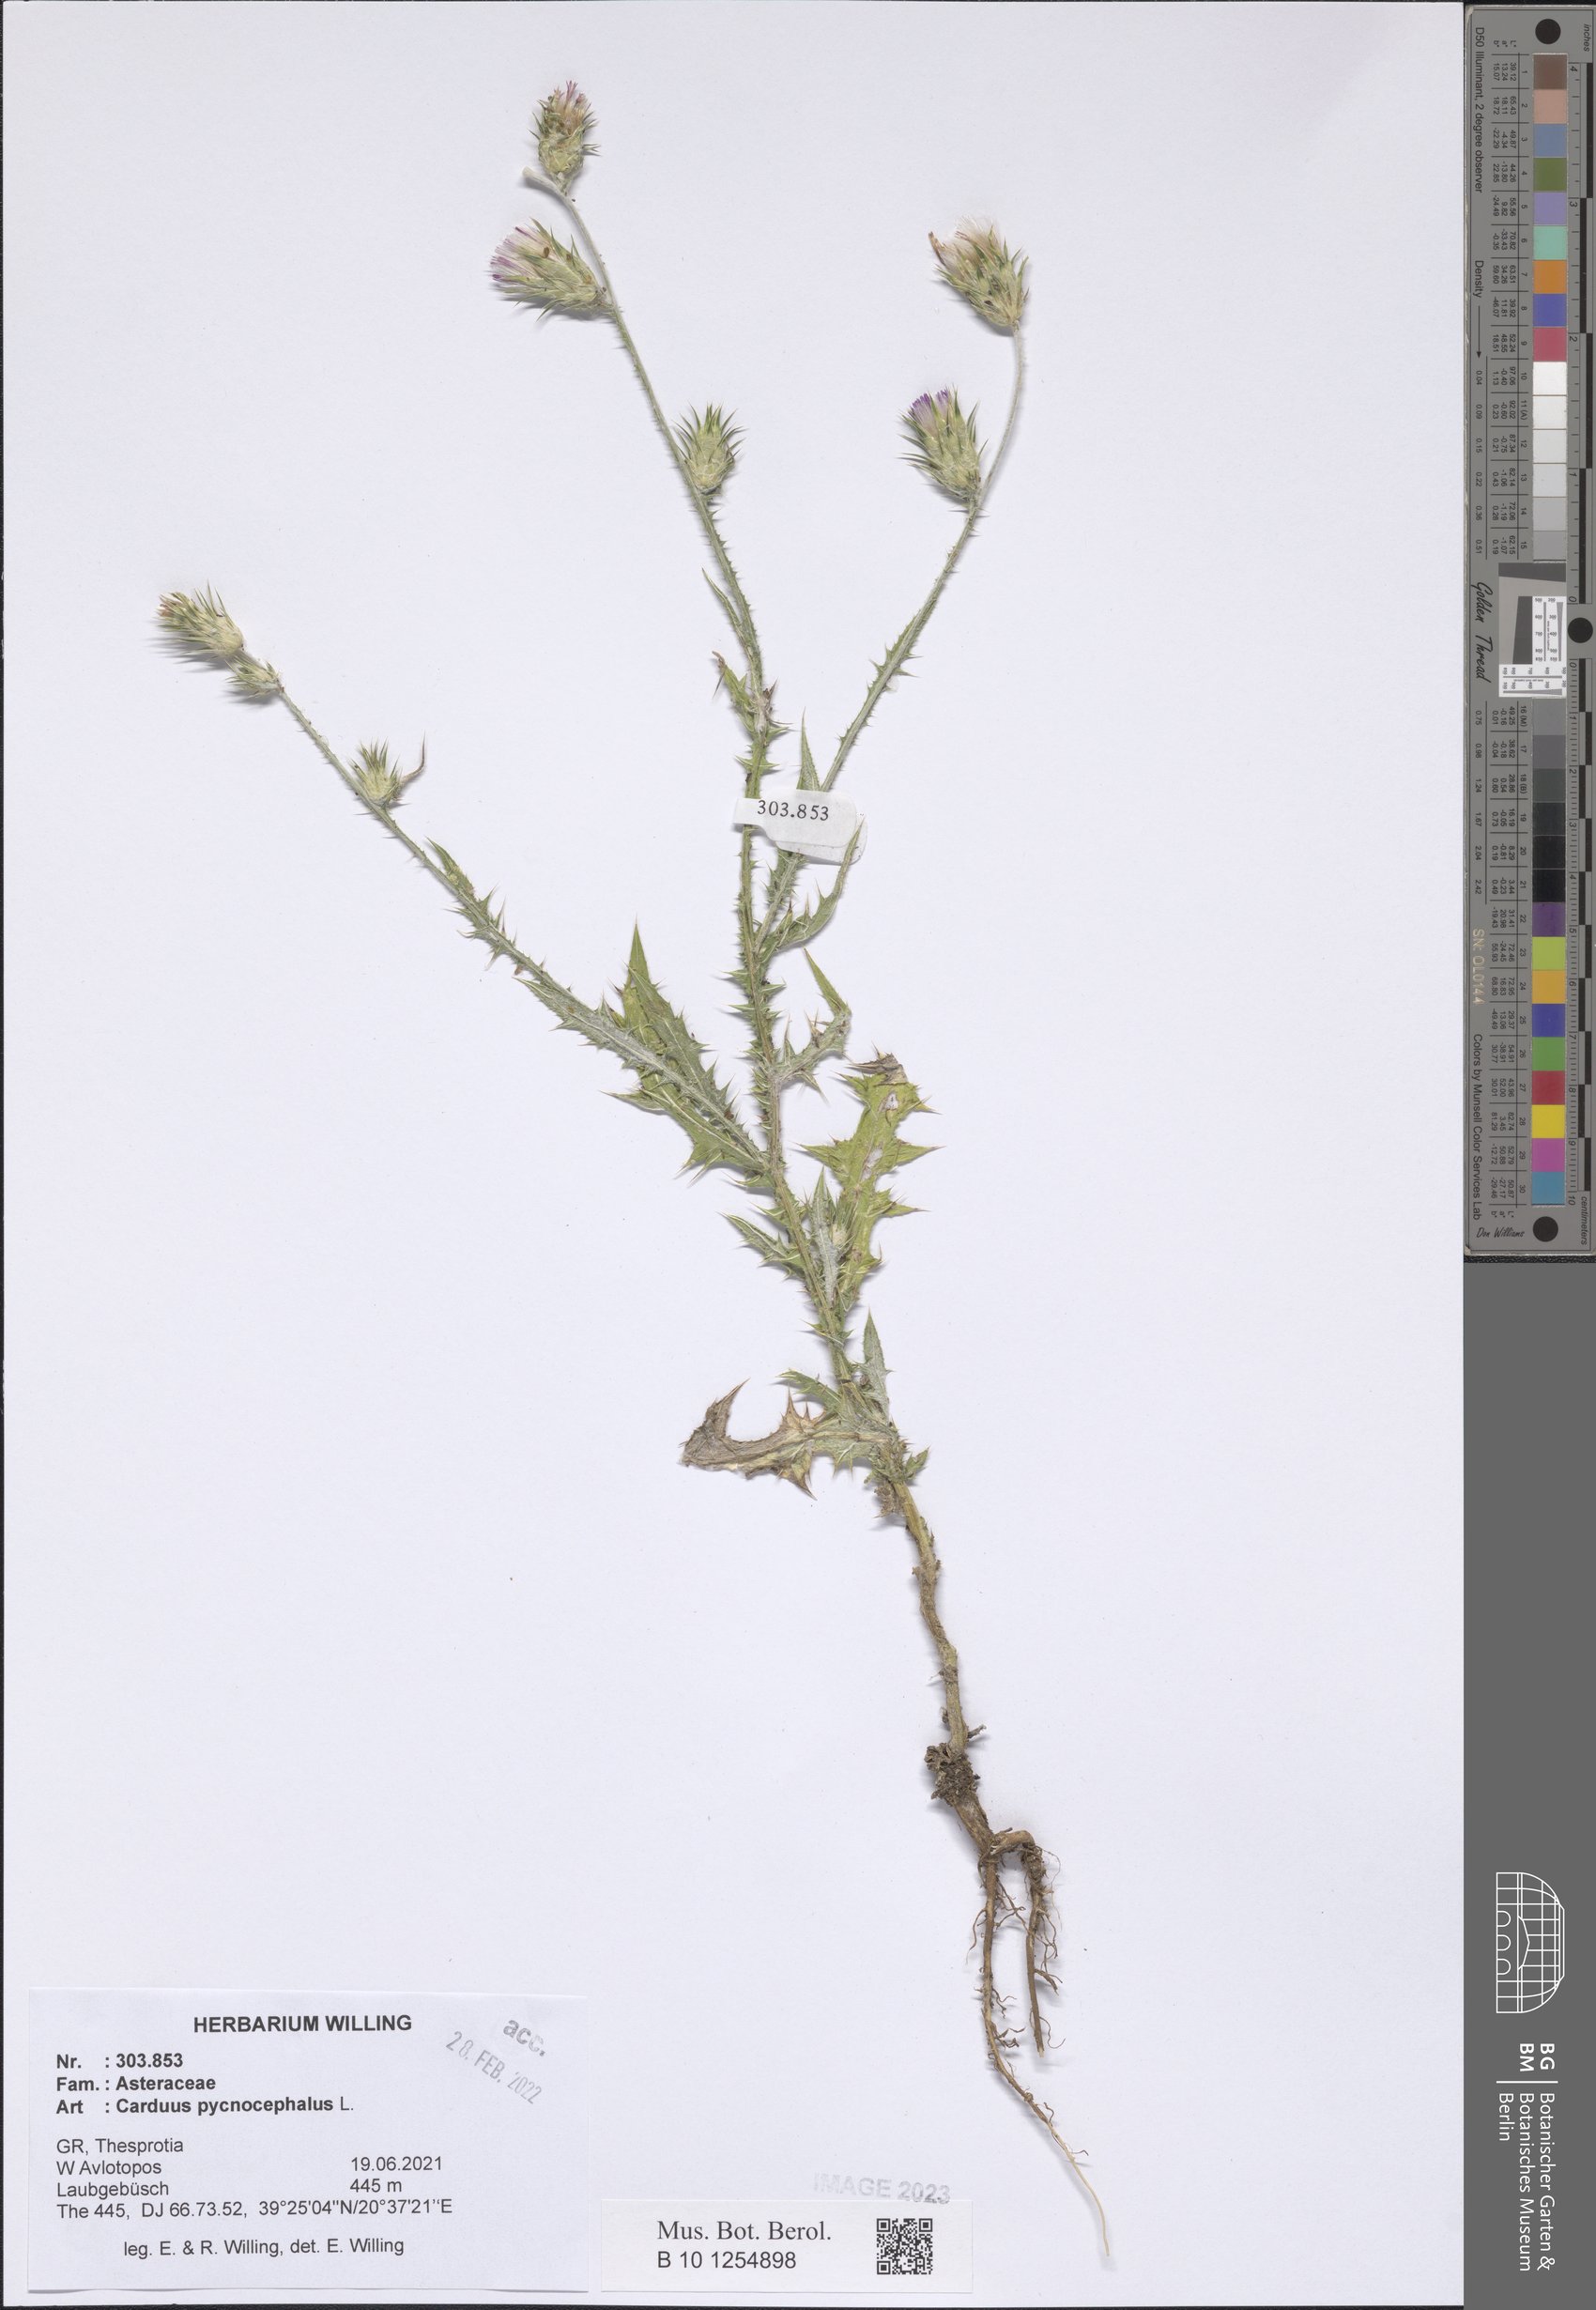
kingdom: Plantae
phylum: Tracheophyta
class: Magnoliopsida
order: Asterales
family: Asteraceae
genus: Carduus
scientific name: Carduus pycnocephalus
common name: Plymouth thistle
